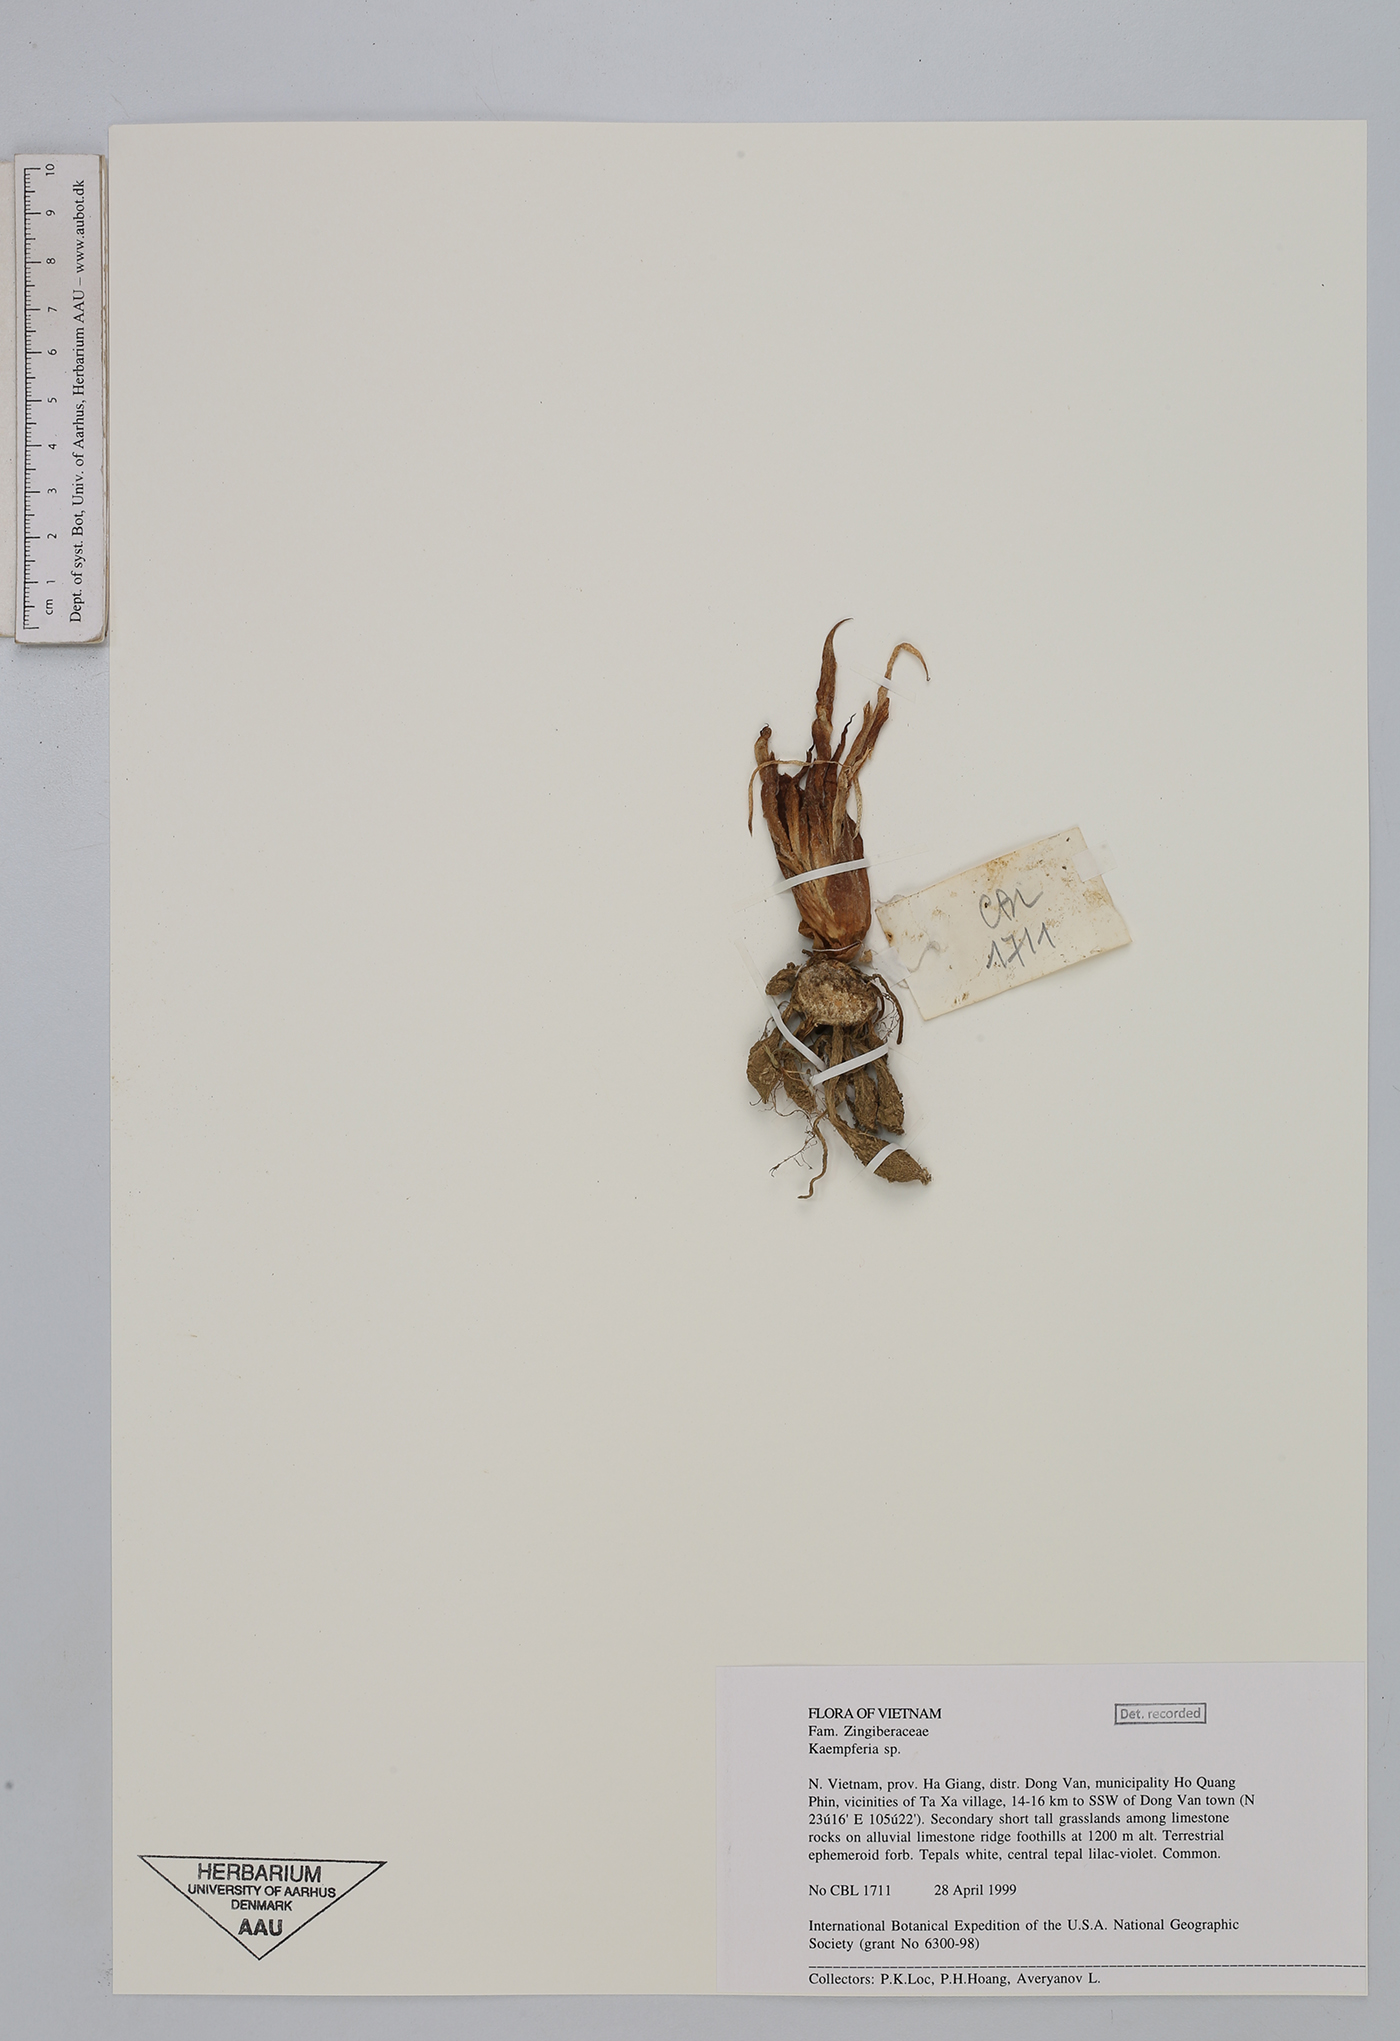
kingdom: Plantae
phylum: Tracheophyta
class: Liliopsida
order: Zingiberales
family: Zingiberaceae
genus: Kaempferia
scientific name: Kaempferia
